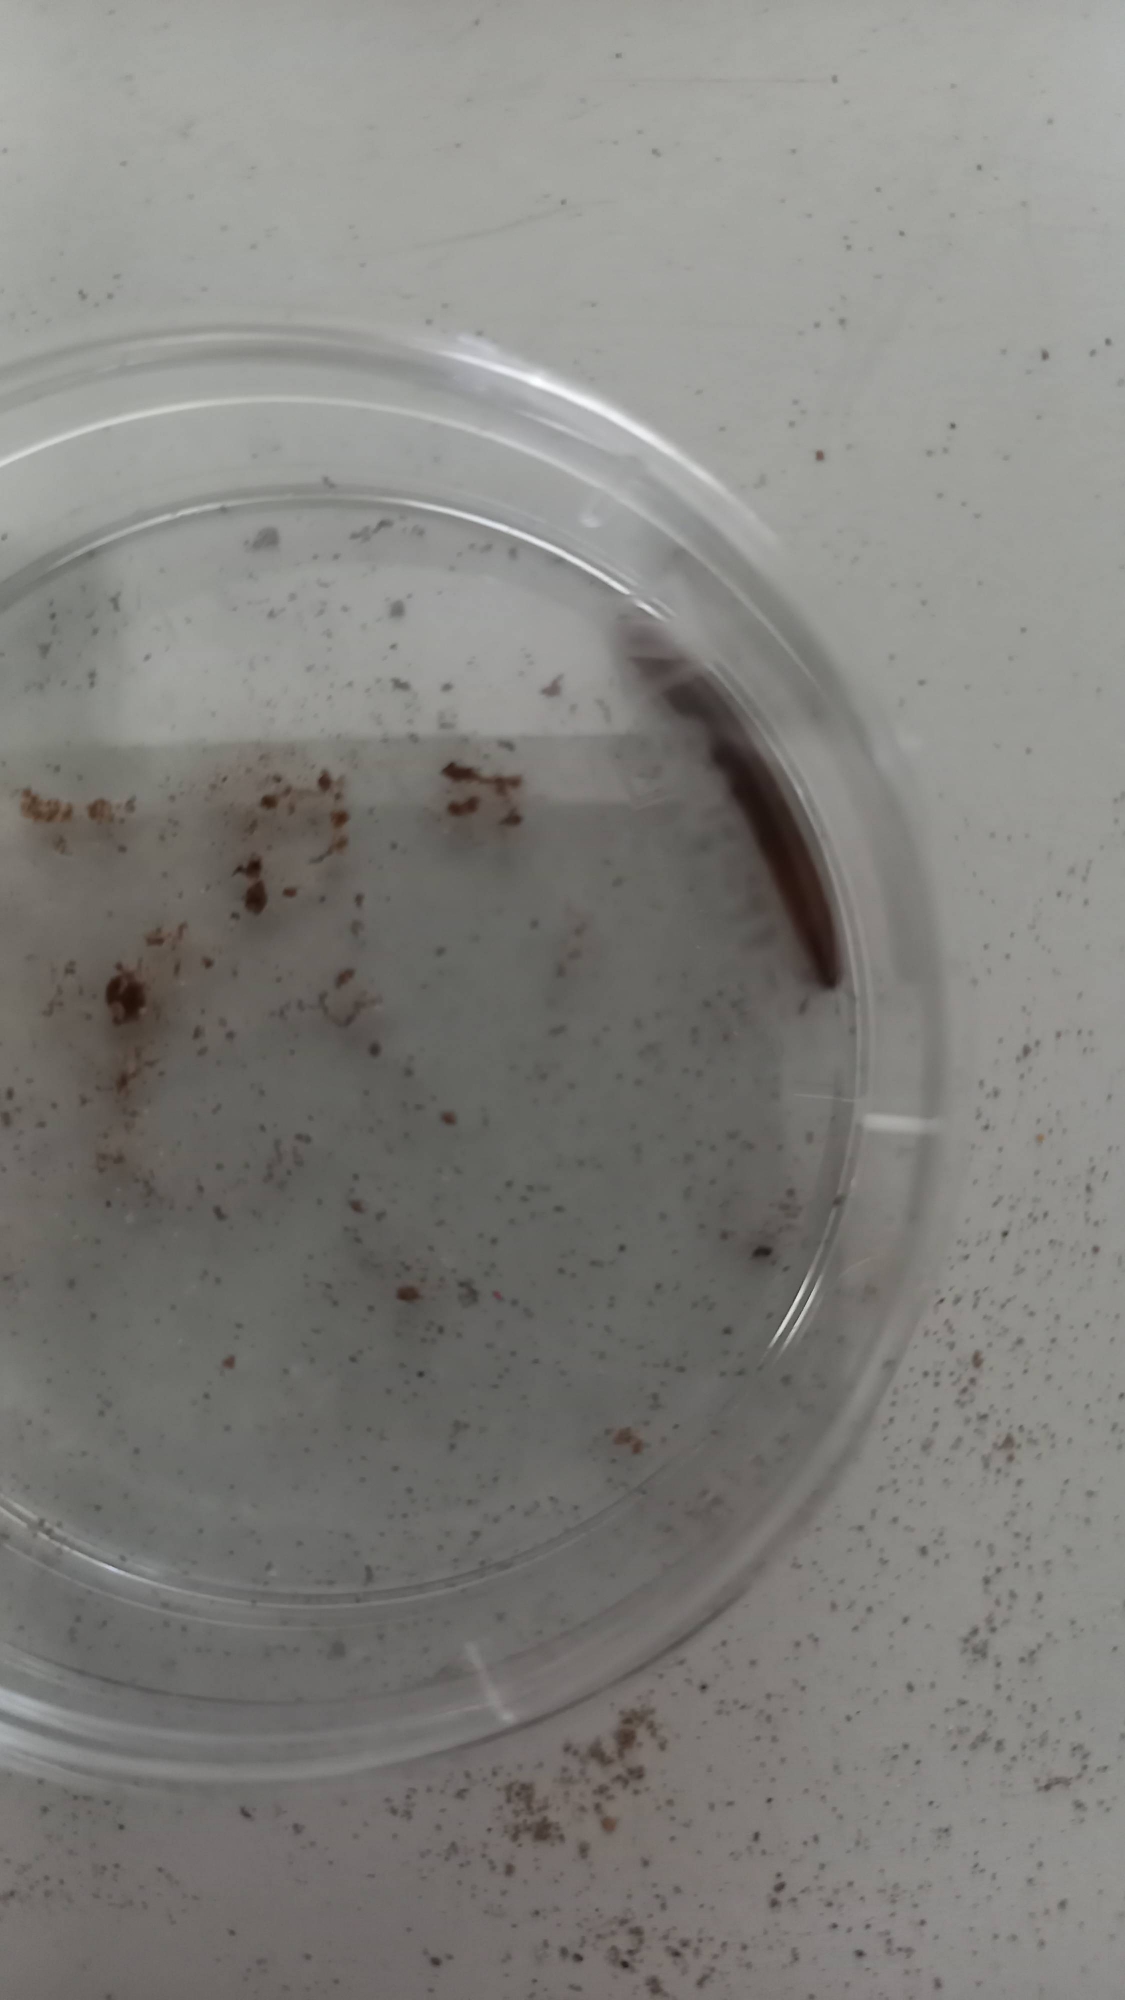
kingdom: Animalia
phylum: Arthropoda
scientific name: Arthropoda
